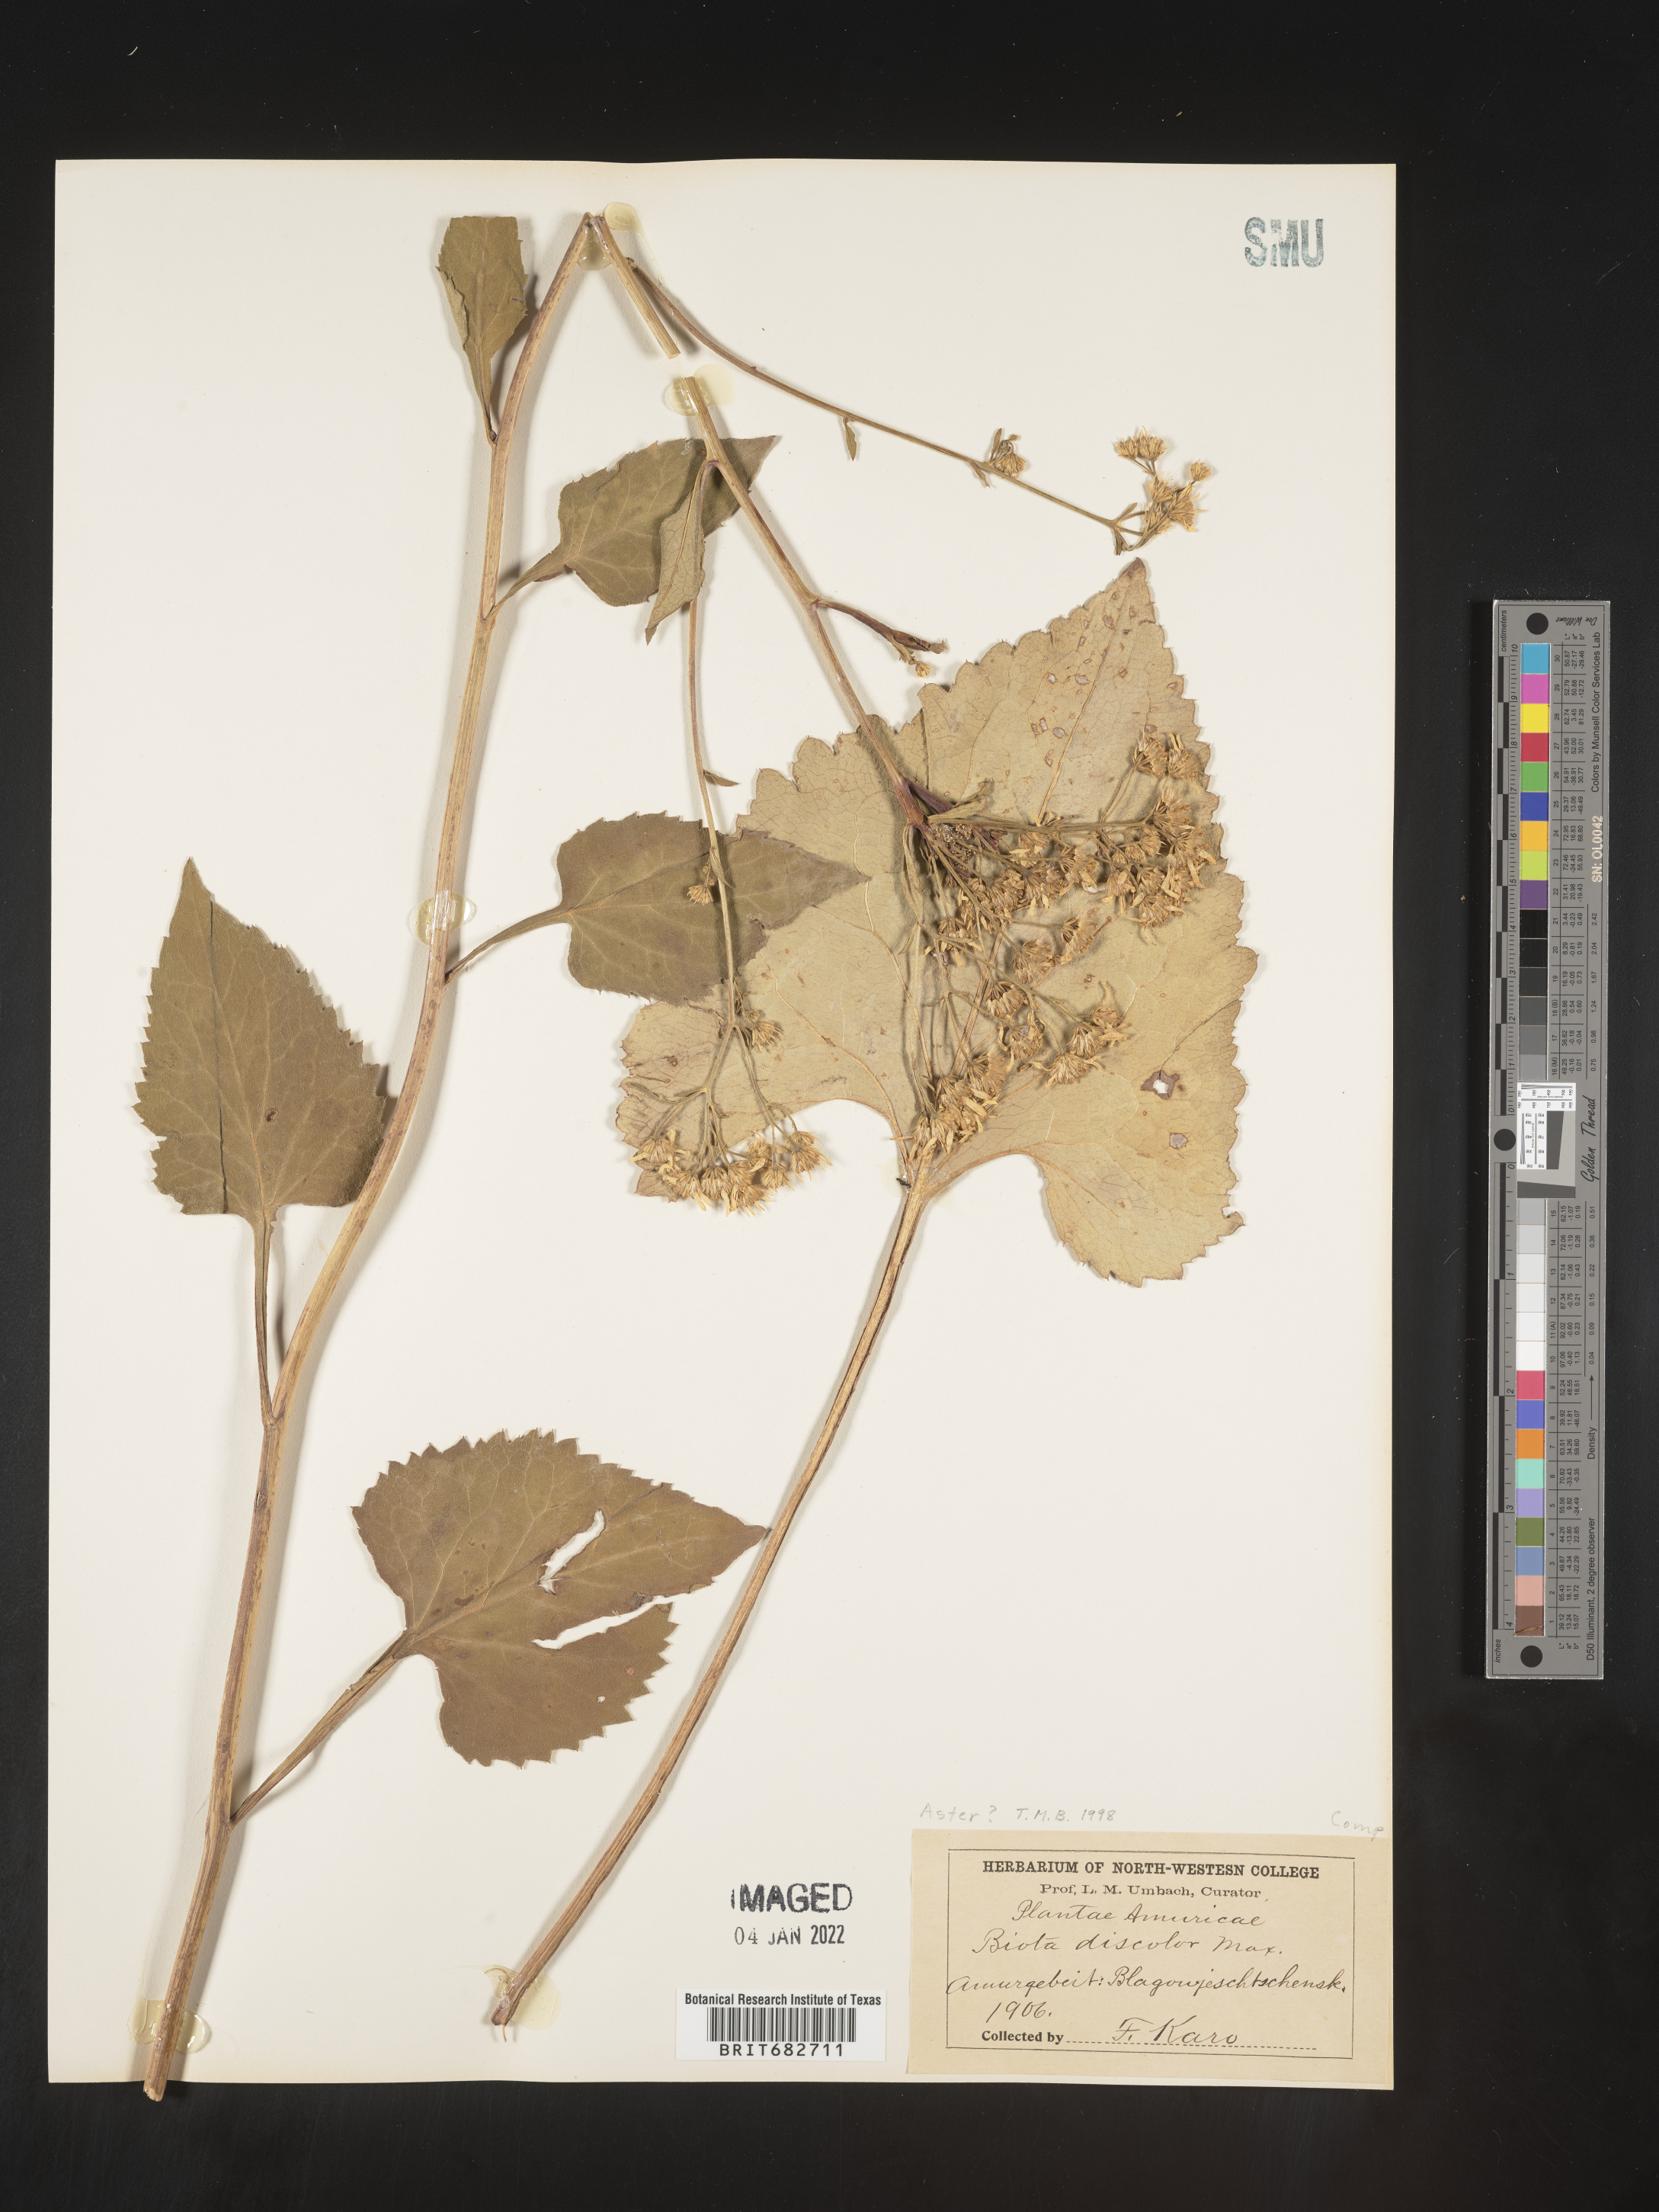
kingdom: Plantae
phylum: Tracheophyta
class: Magnoliopsida
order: Asterales
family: Asteraceae
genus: Aster
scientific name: Aster
